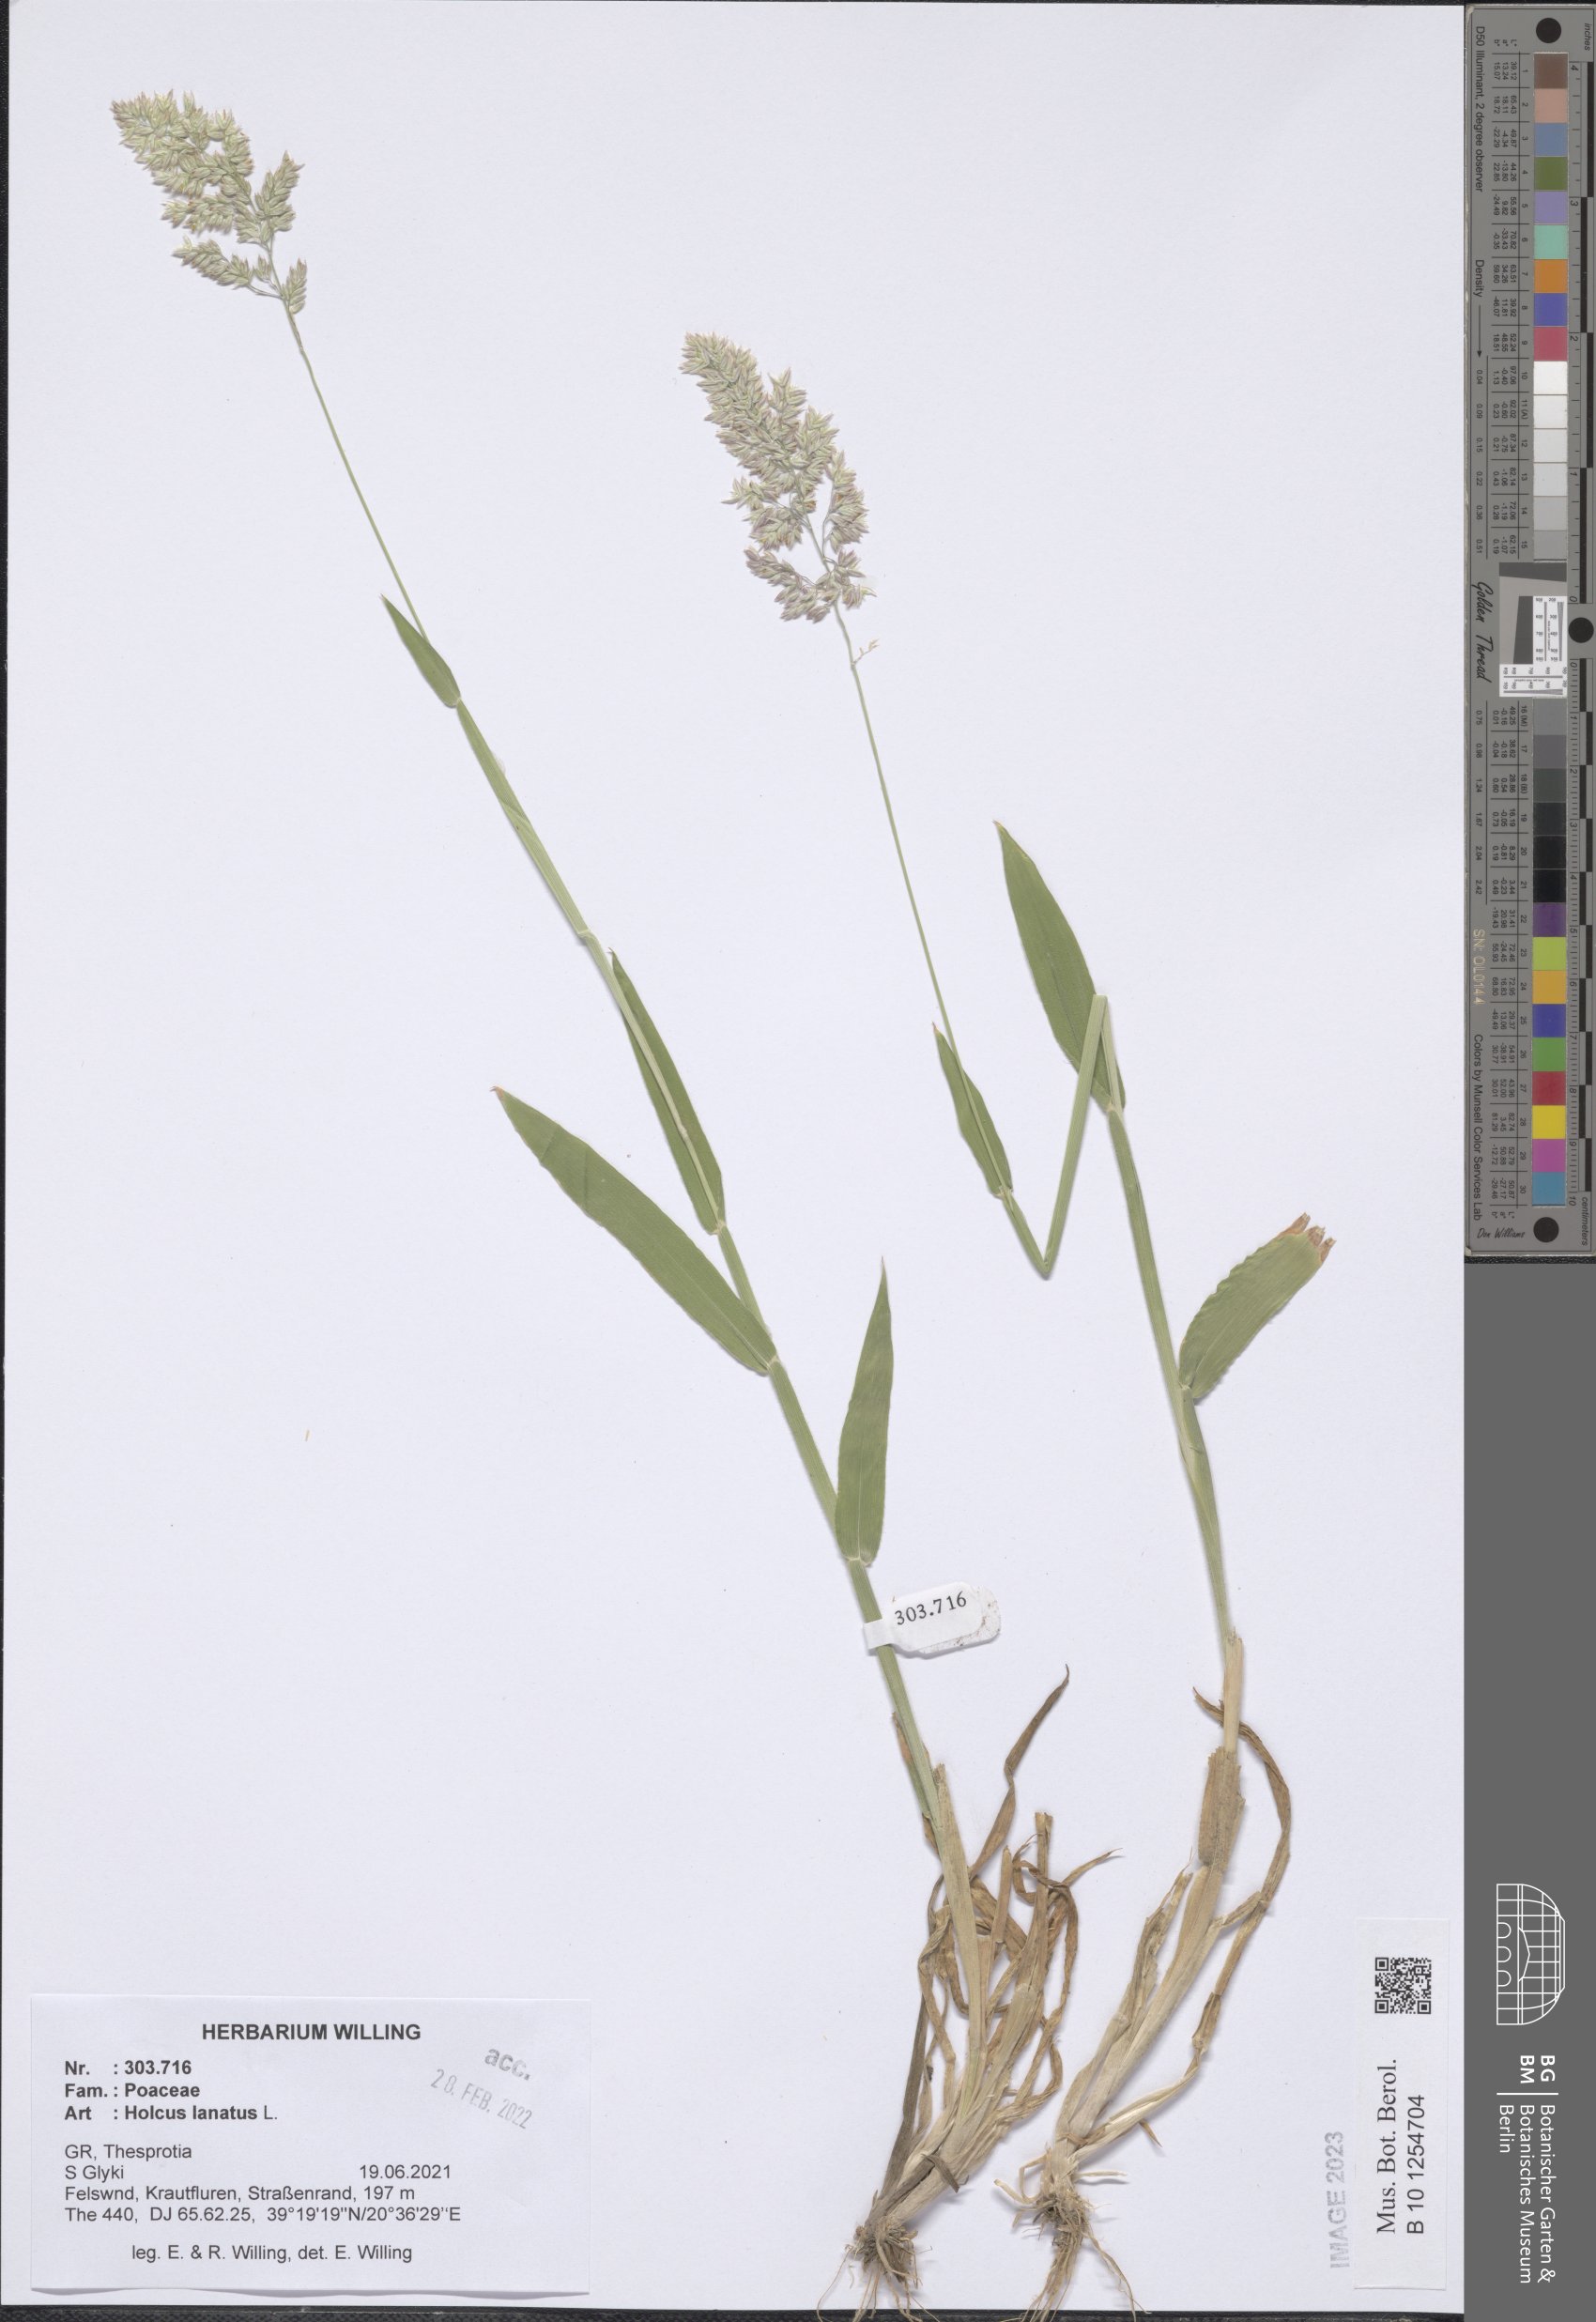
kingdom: Plantae
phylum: Tracheophyta
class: Liliopsida
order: Poales
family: Poaceae
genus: Holcus
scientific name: Holcus lanatus
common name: Yorkshire-fog
